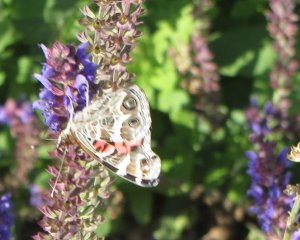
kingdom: Animalia
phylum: Arthropoda
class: Insecta
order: Lepidoptera
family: Nymphalidae
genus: Vanessa
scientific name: Vanessa virginiensis
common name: American Lady
